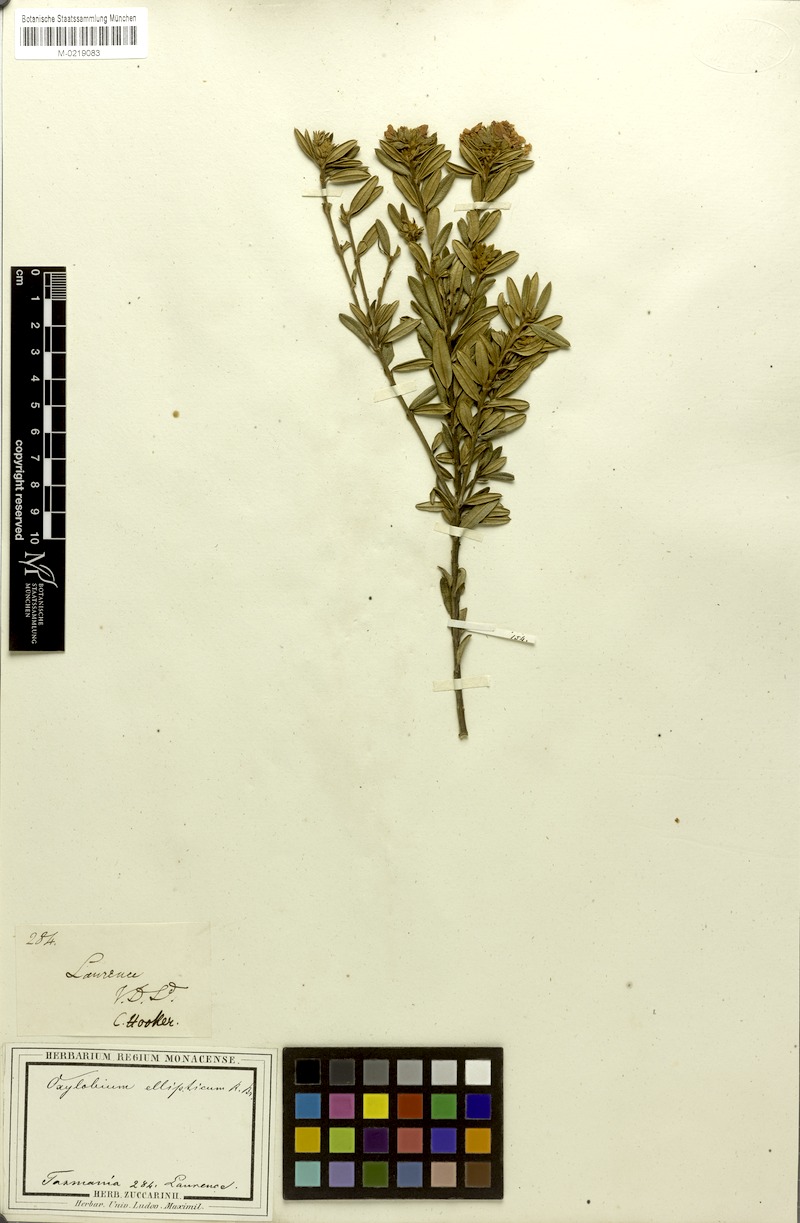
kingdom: Plantae
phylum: Tracheophyta
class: Magnoliopsida
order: Fabales
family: Fabaceae
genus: Oxylobium
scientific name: Oxylobium ellipticum
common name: Golden shaggy-pea
